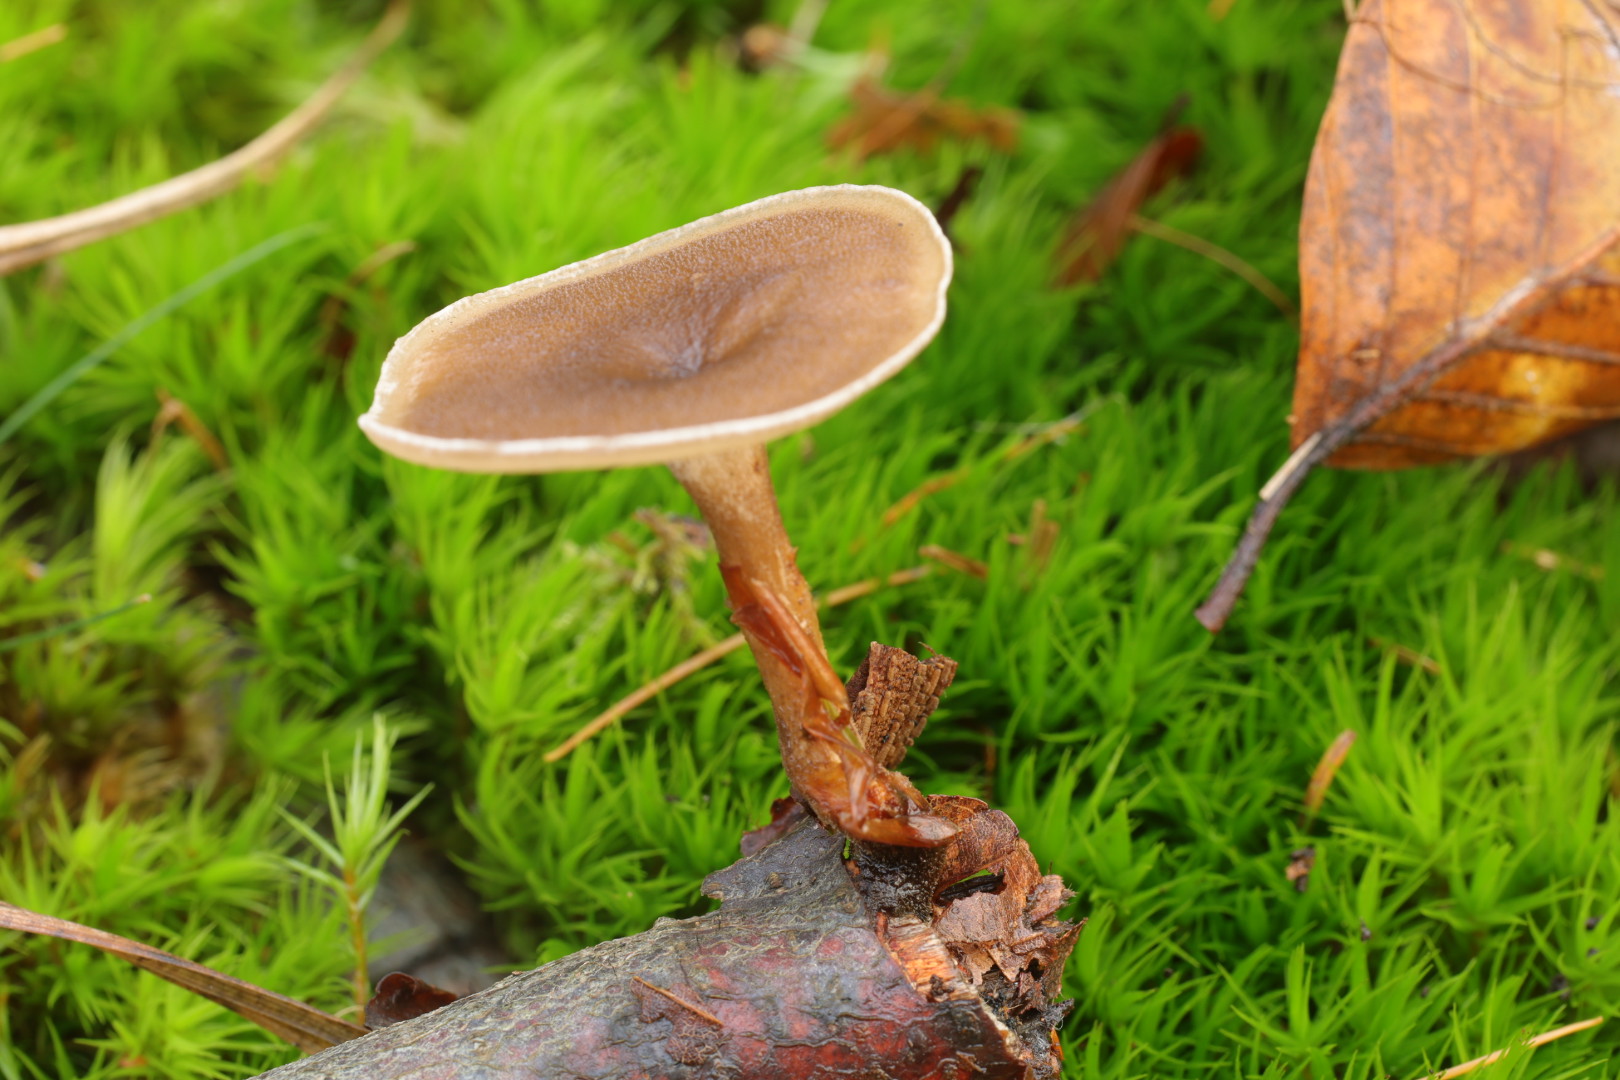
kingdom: Fungi
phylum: Basidiomycota
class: Agaricomycetes
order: Polyporales
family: Polyporaceae
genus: Lentinus
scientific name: Lentinus brumalis
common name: vinter-stilkporesvamp
